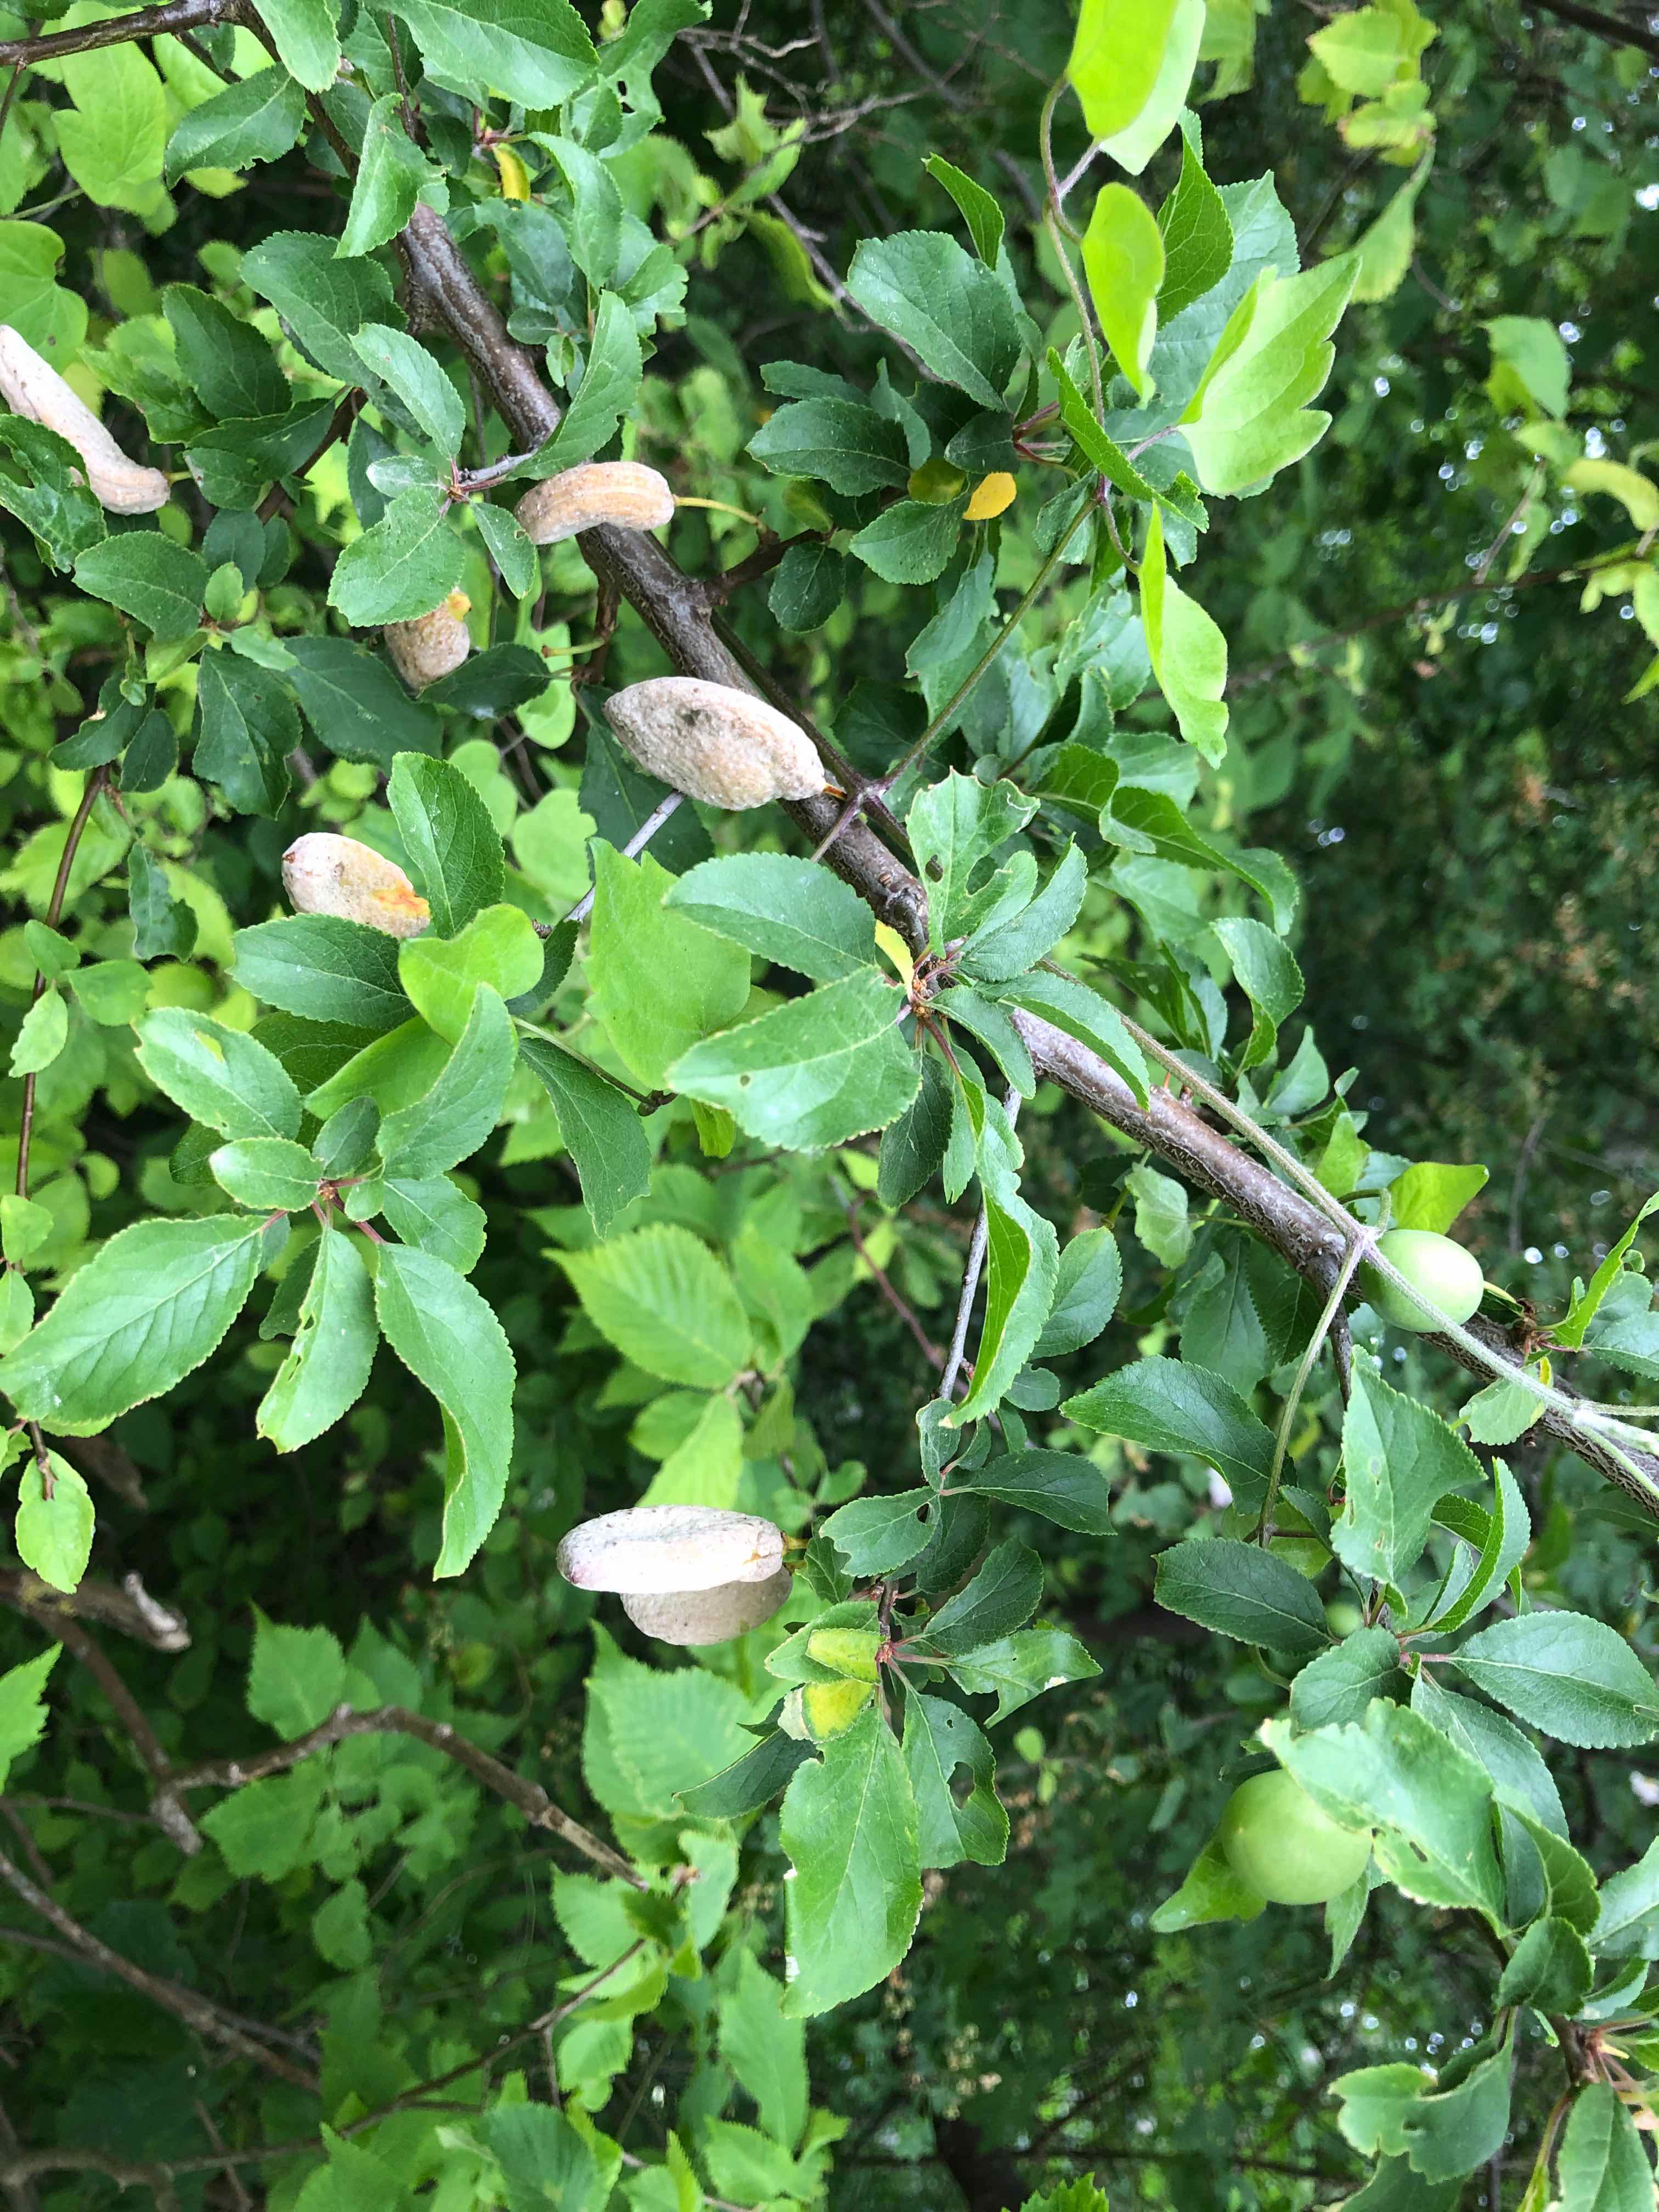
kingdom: Fungi
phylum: Ascomycota
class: Taphrinomycetes
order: Taphrinales
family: Taphrinaceae
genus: Taphrina
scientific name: Taphrina pruni
